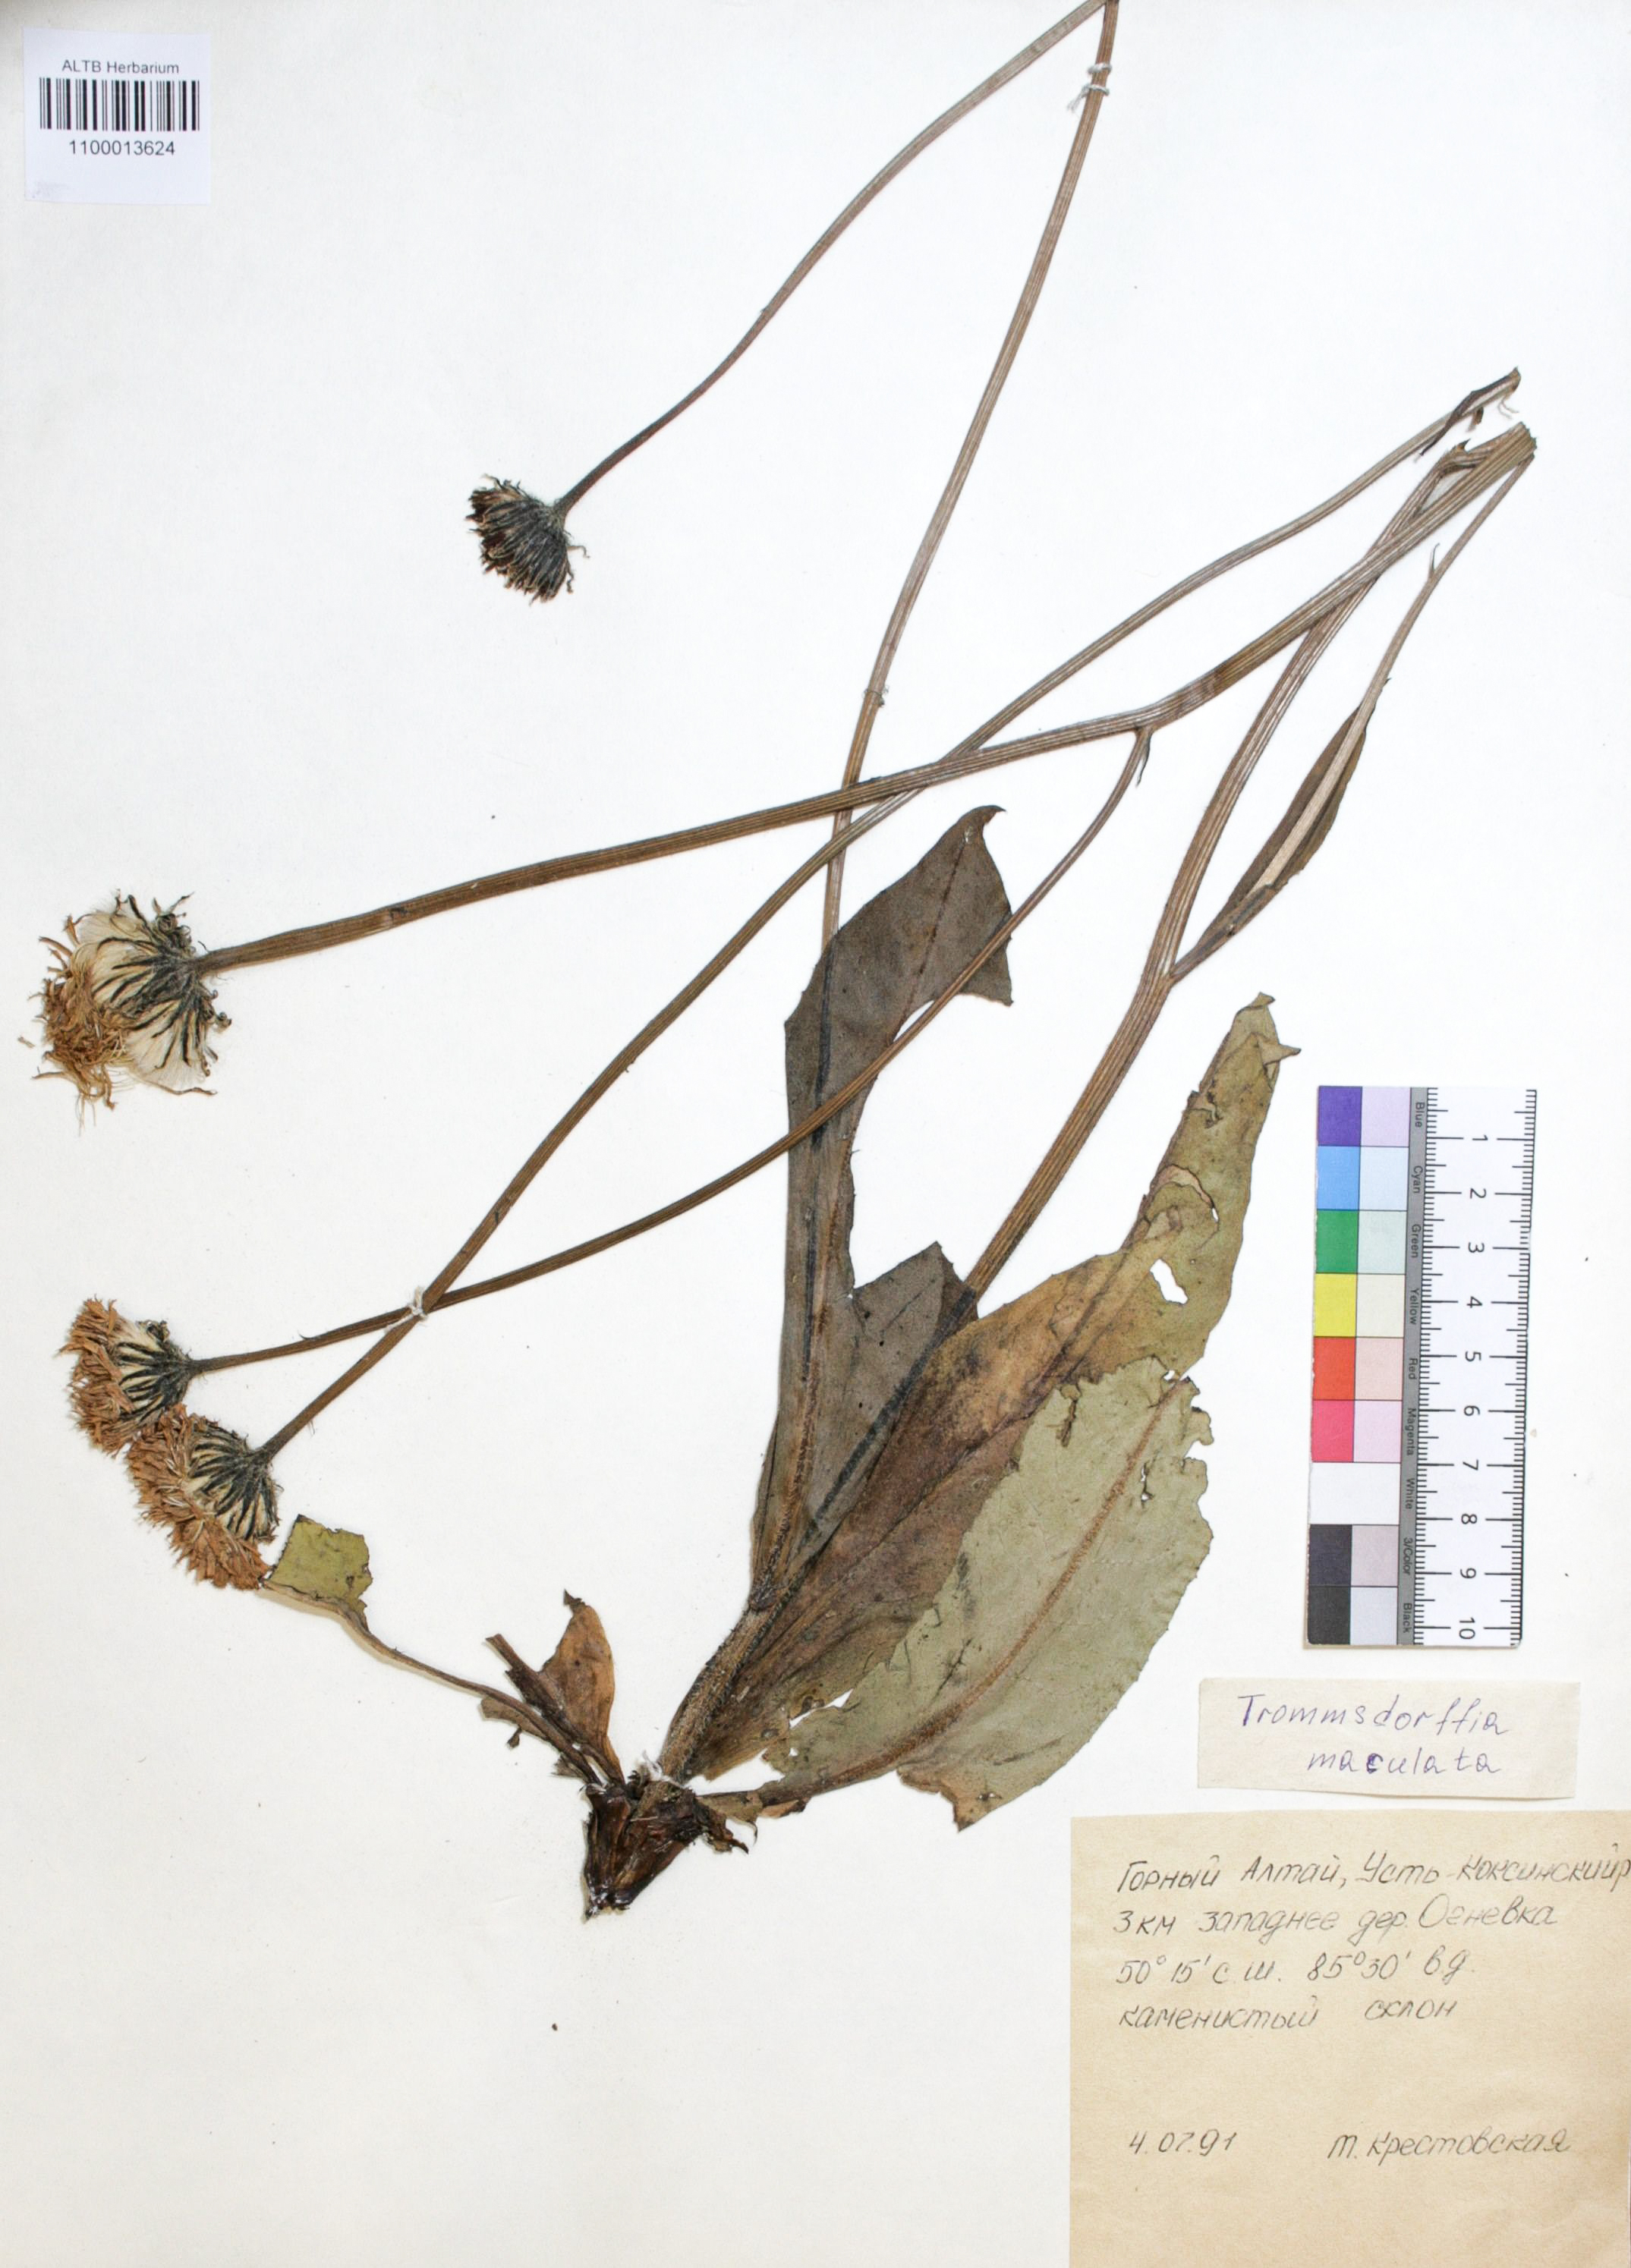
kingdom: Plantae
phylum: Tracheophyta
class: Magnoliopsida
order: Asterales
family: Asteraceae
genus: Trommsdorffia
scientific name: Trommsdorffia maculata
